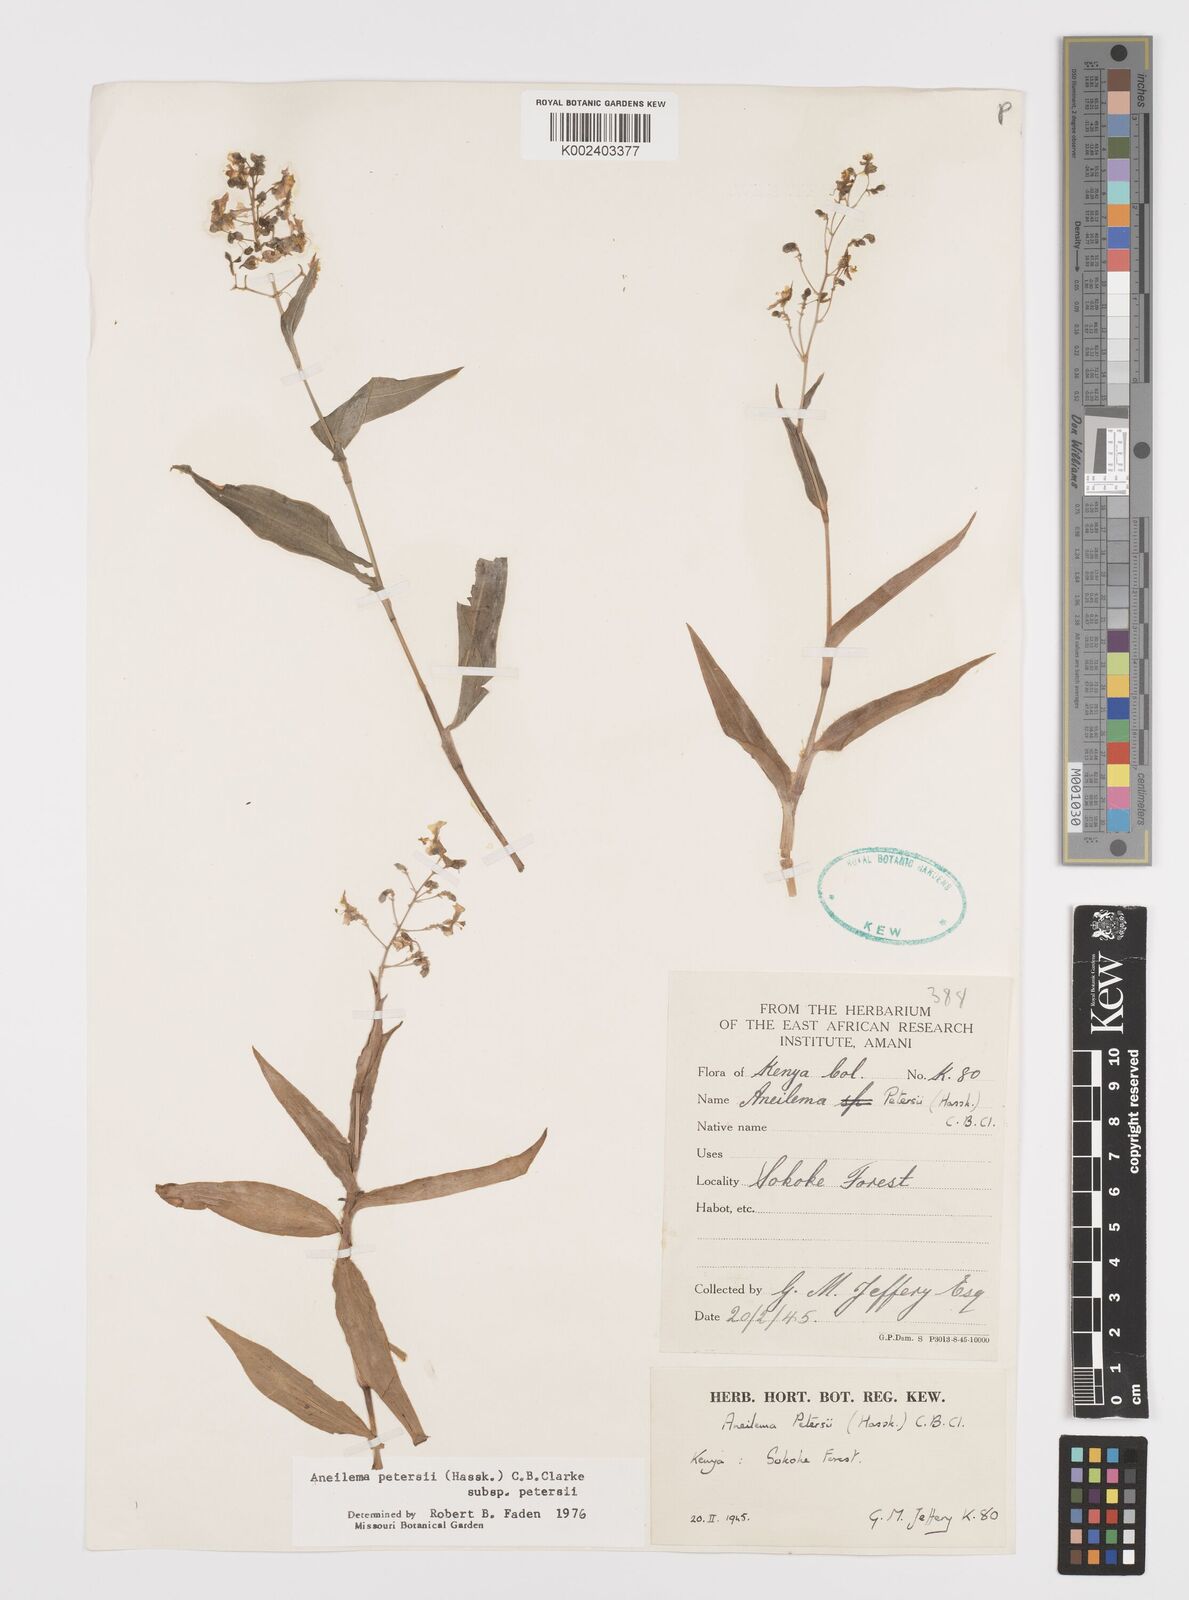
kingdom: Plantae
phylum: Tracheophyta
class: Liliopsida
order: Commelinales
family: Commelinaceae
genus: Aneilema
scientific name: Aneilema petersii
